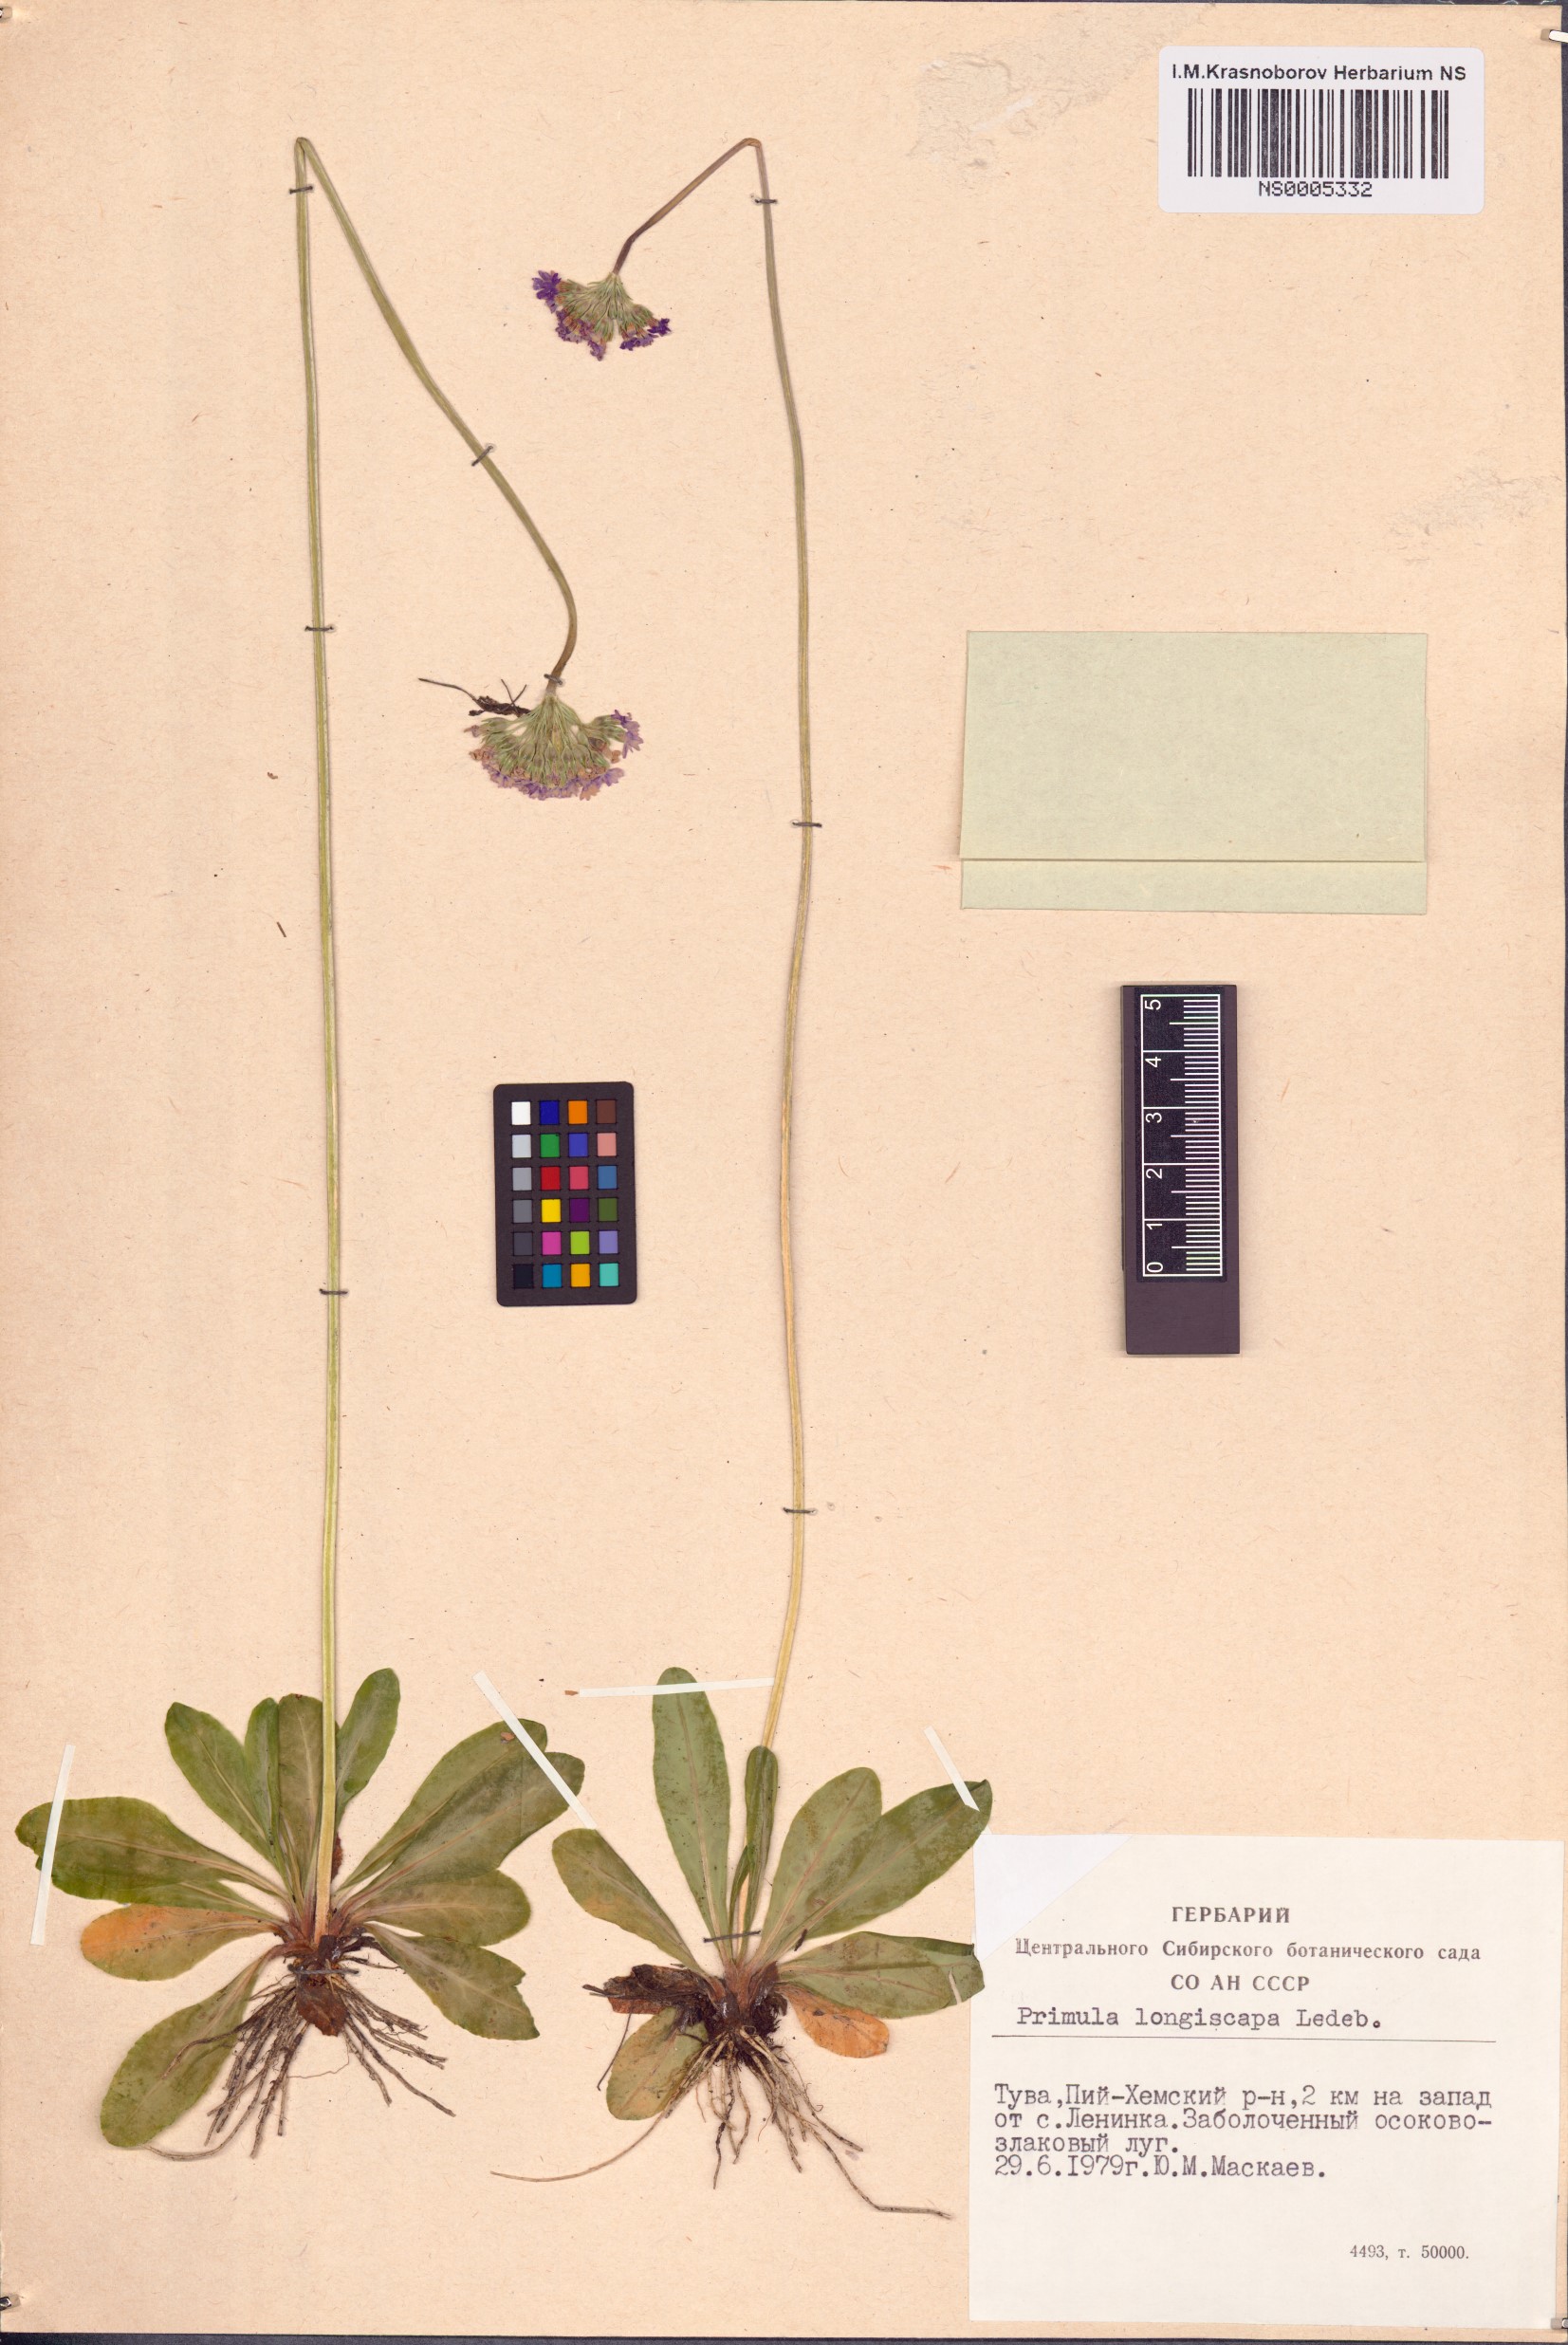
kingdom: Plantae
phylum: Tracheophyta
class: Magnoliopsida
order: Ericales
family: Primulaceae
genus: Primula
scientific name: Primula longiscapa
